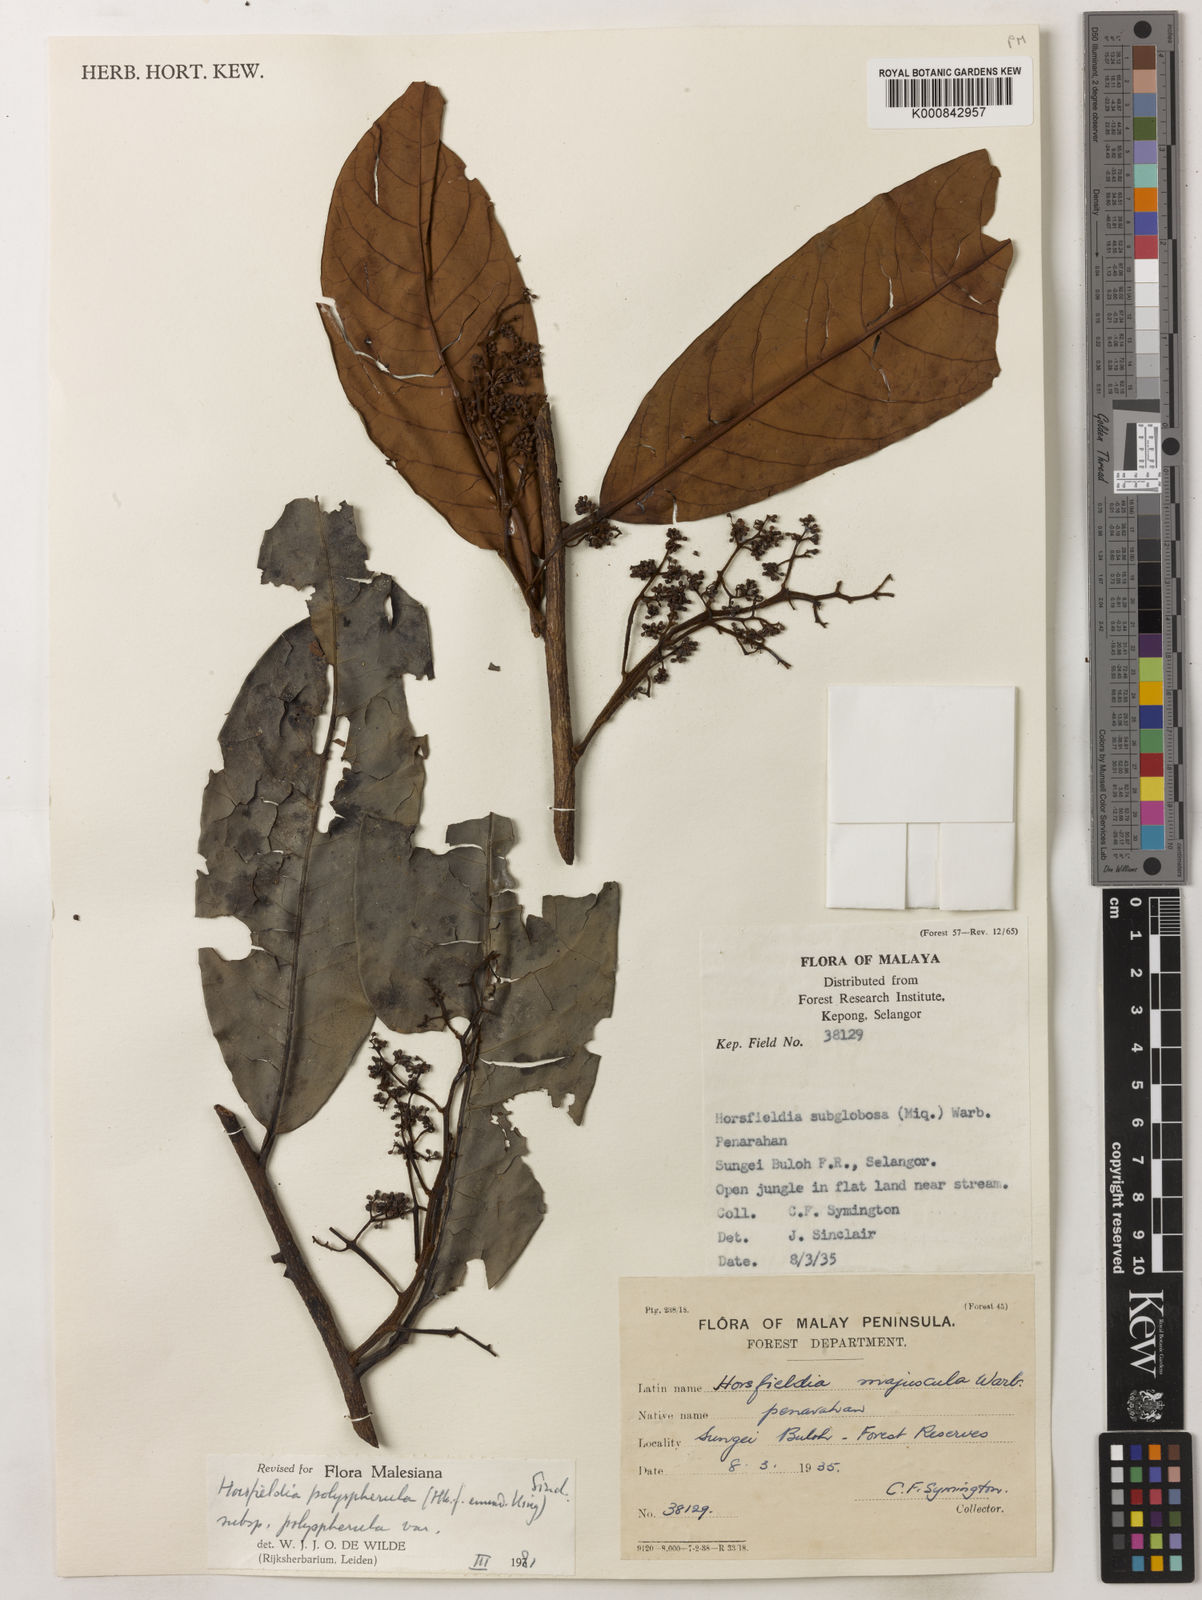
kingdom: Plantae
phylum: Tracheophyta
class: Magnoliopsida
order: Magnoliales
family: Myristicaceae
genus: Horsfieldia
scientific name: Horsfieldia
